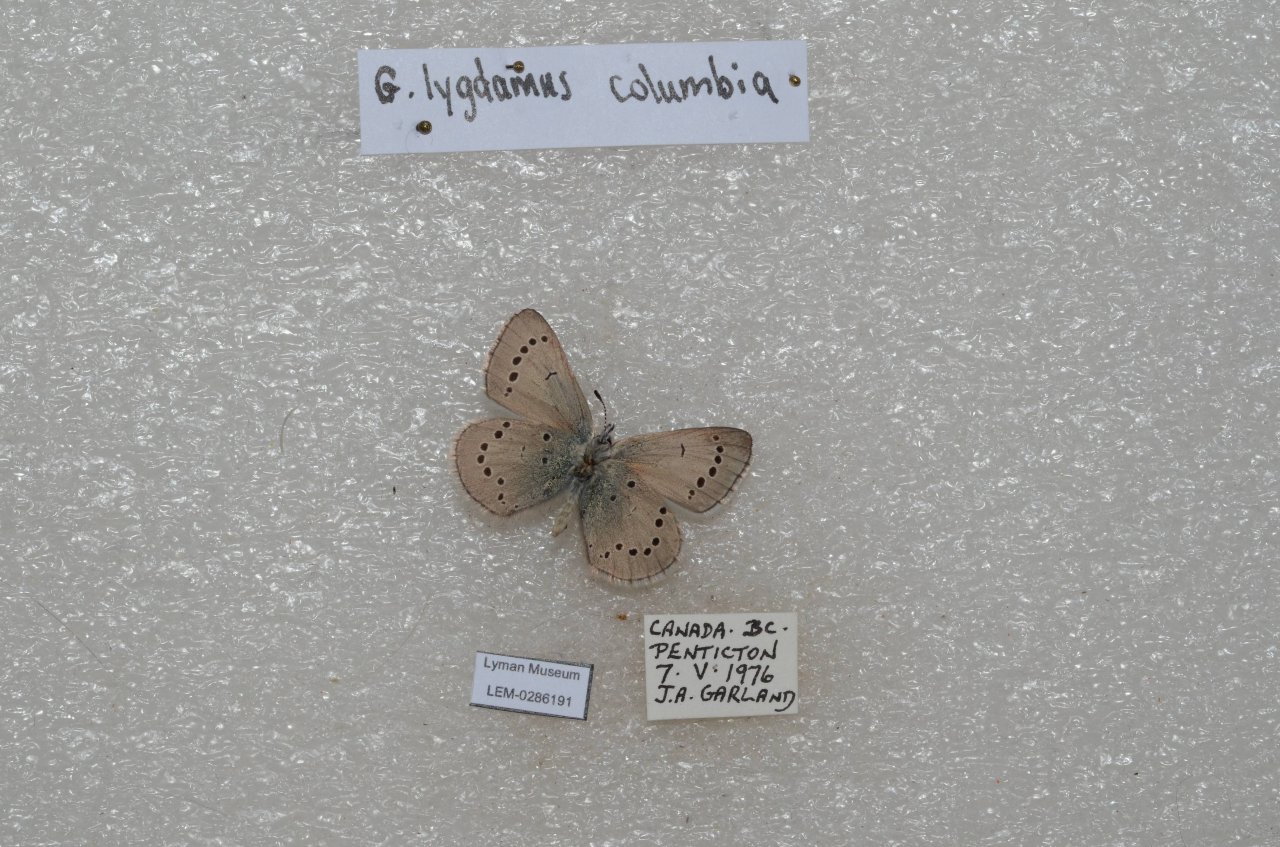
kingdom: Animalia
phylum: Arthropoda
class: Insecta
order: Lepidoptera
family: Lycaenidae
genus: Glaucopsyche
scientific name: Glaucopsyche lygdamus
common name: Silvery Blue
